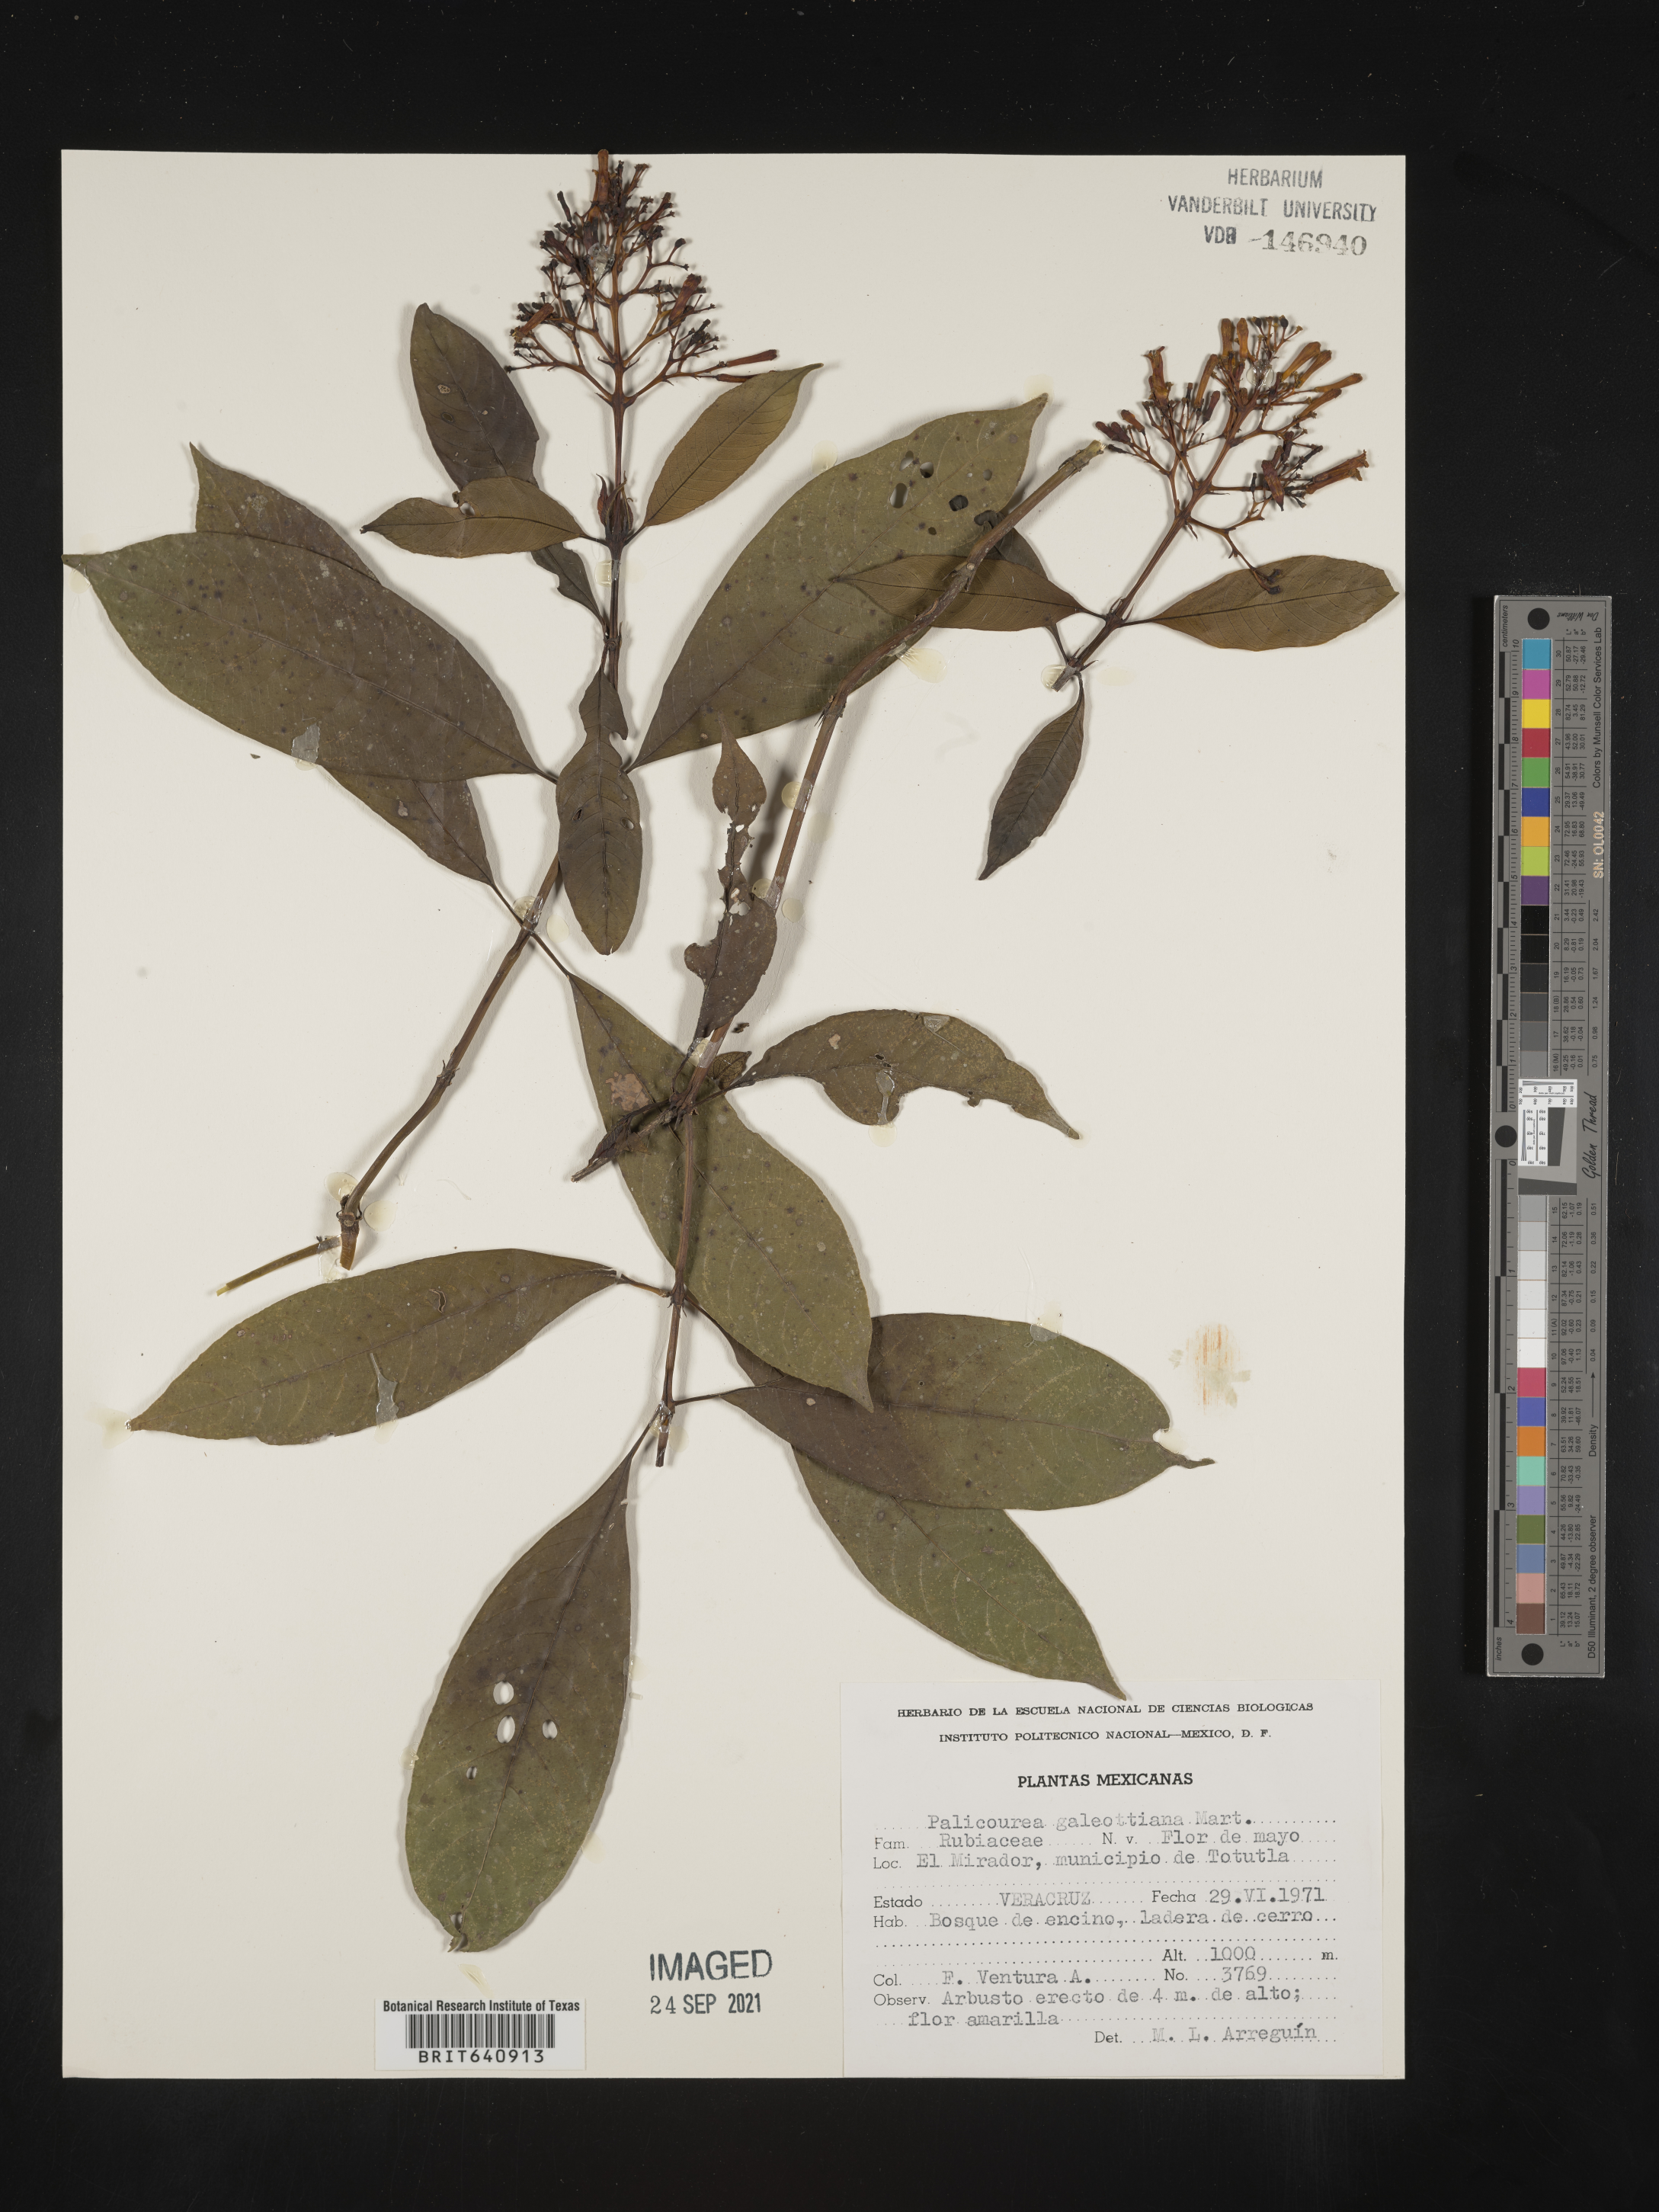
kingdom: Plantae
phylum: Tracheophyta
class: Magnoliopsida
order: Gentianales
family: Rubiaceae
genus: Palicourea
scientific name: Palicourea
